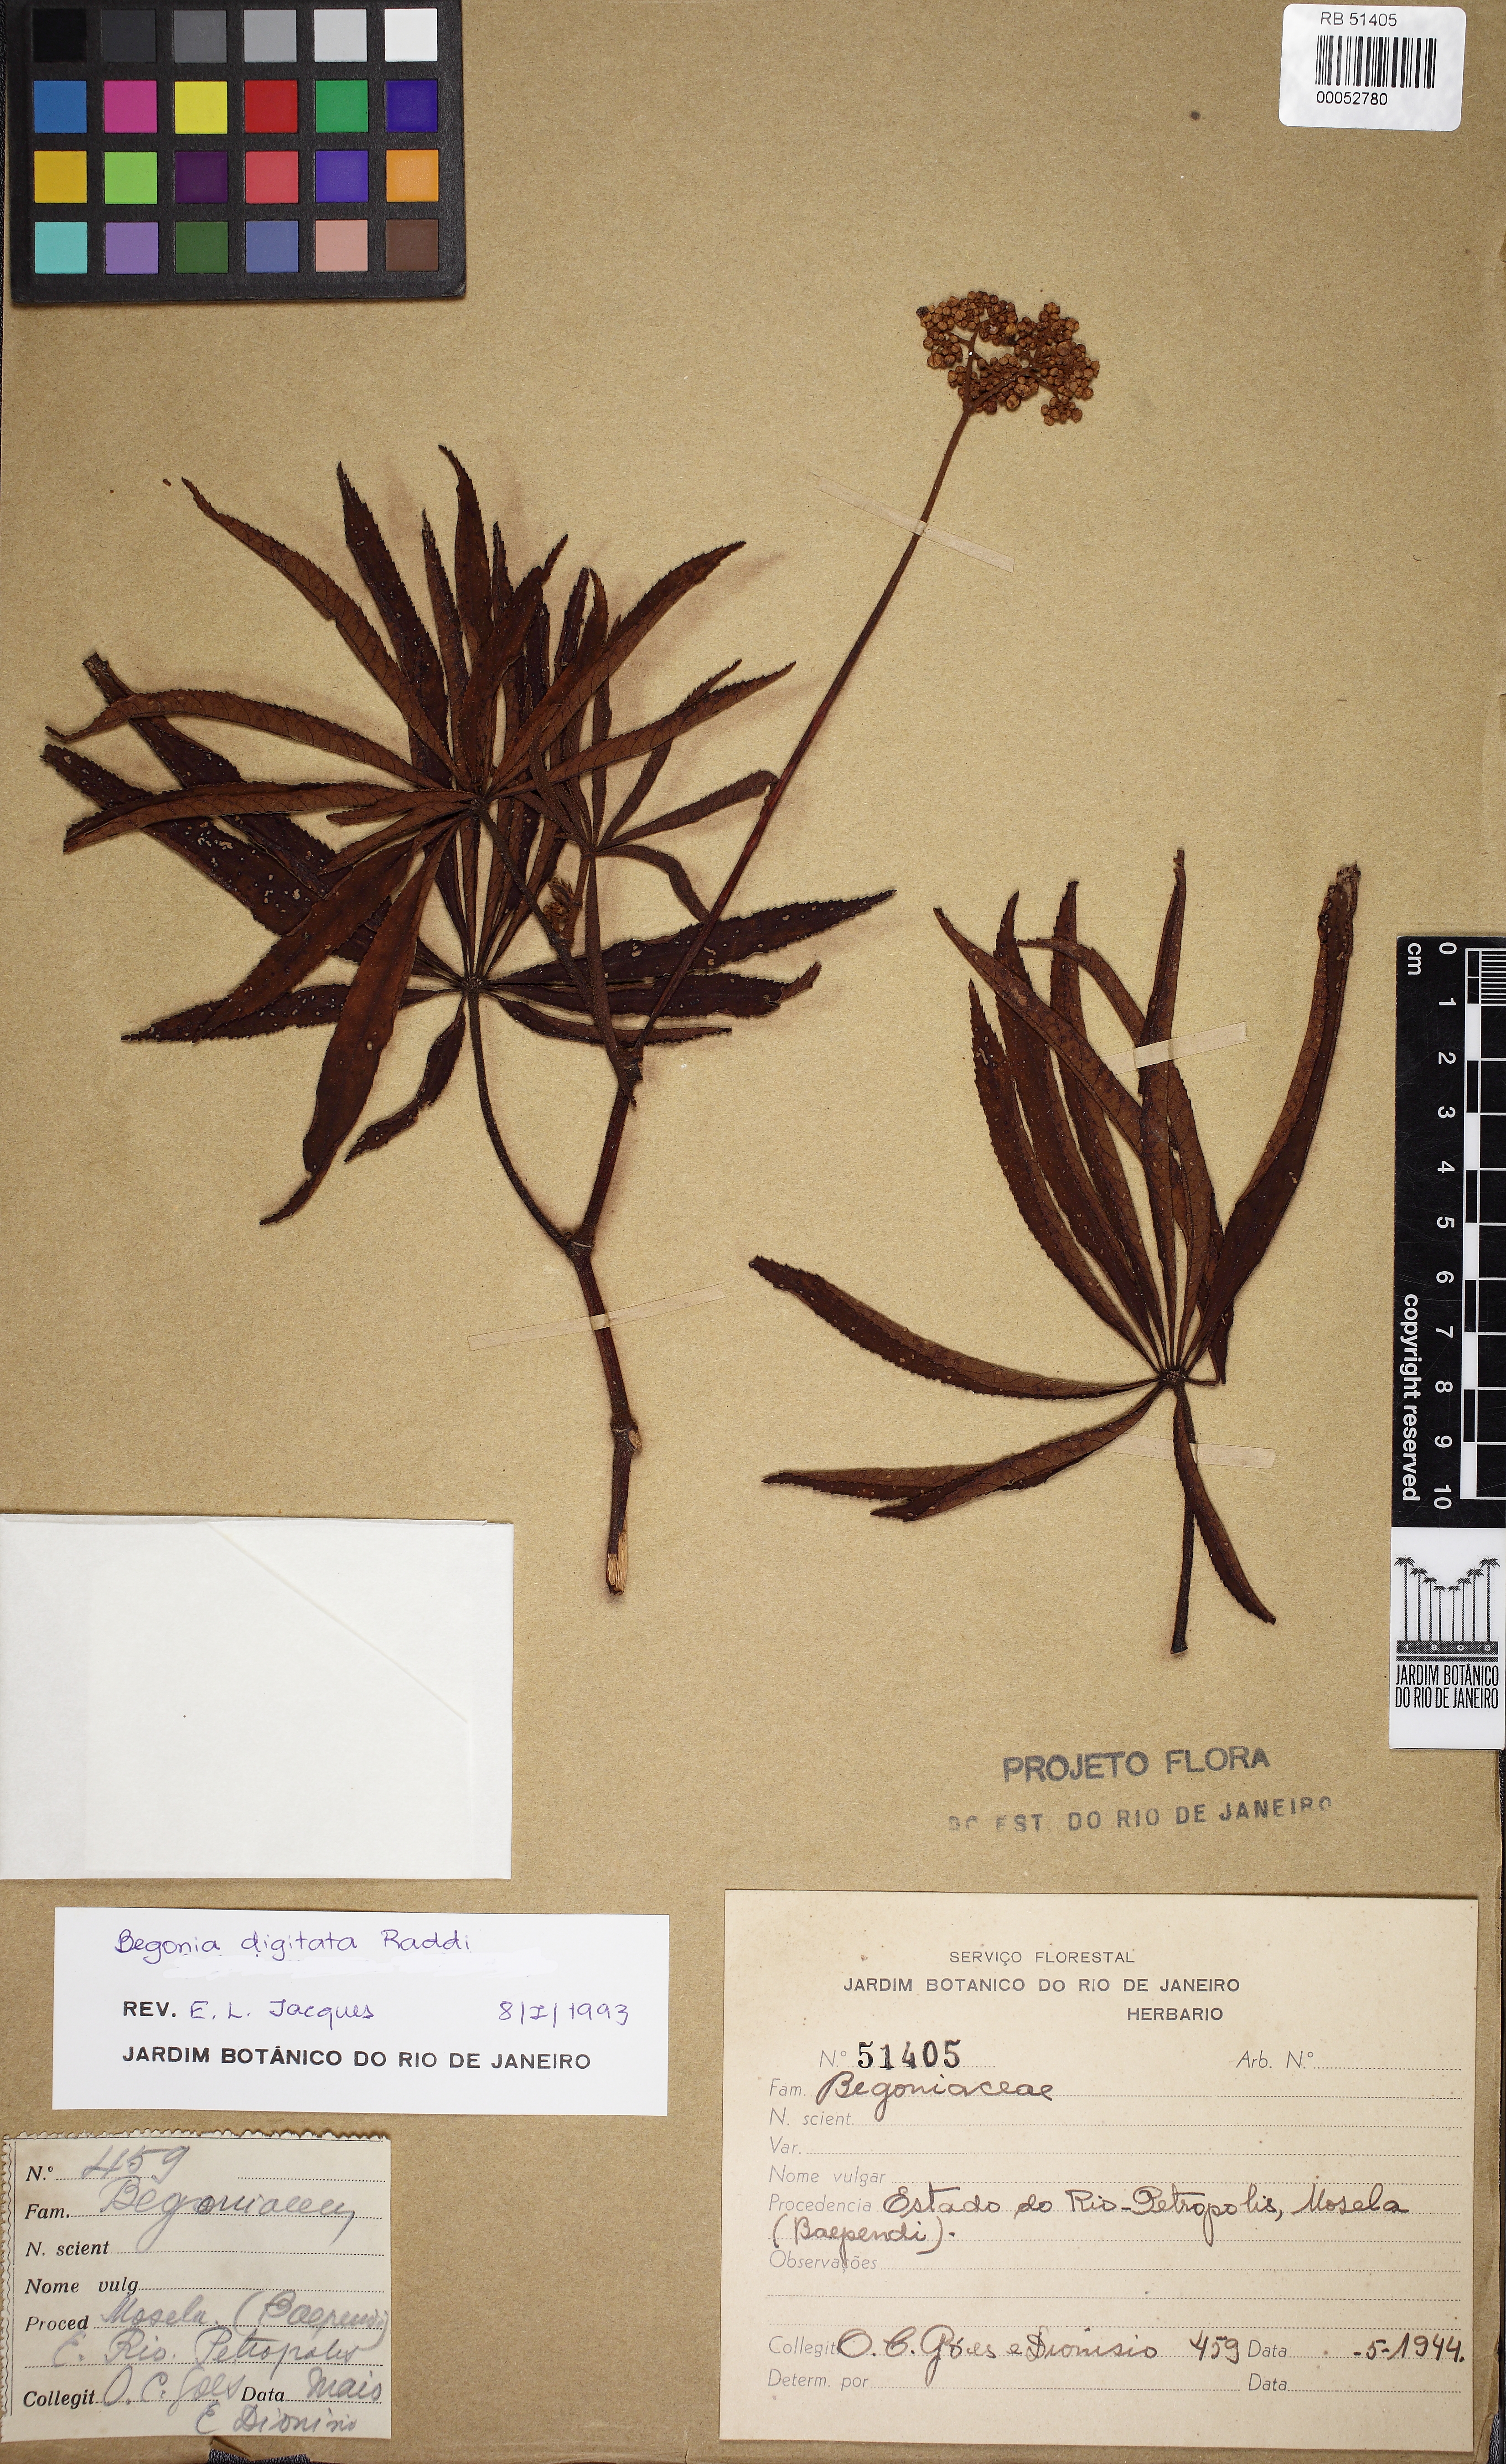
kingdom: Plantae
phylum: Tracheophyta
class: Magnoliopsida
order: Cucurbitales
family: Begoniaceae
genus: Begonia
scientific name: Begonia digitata
